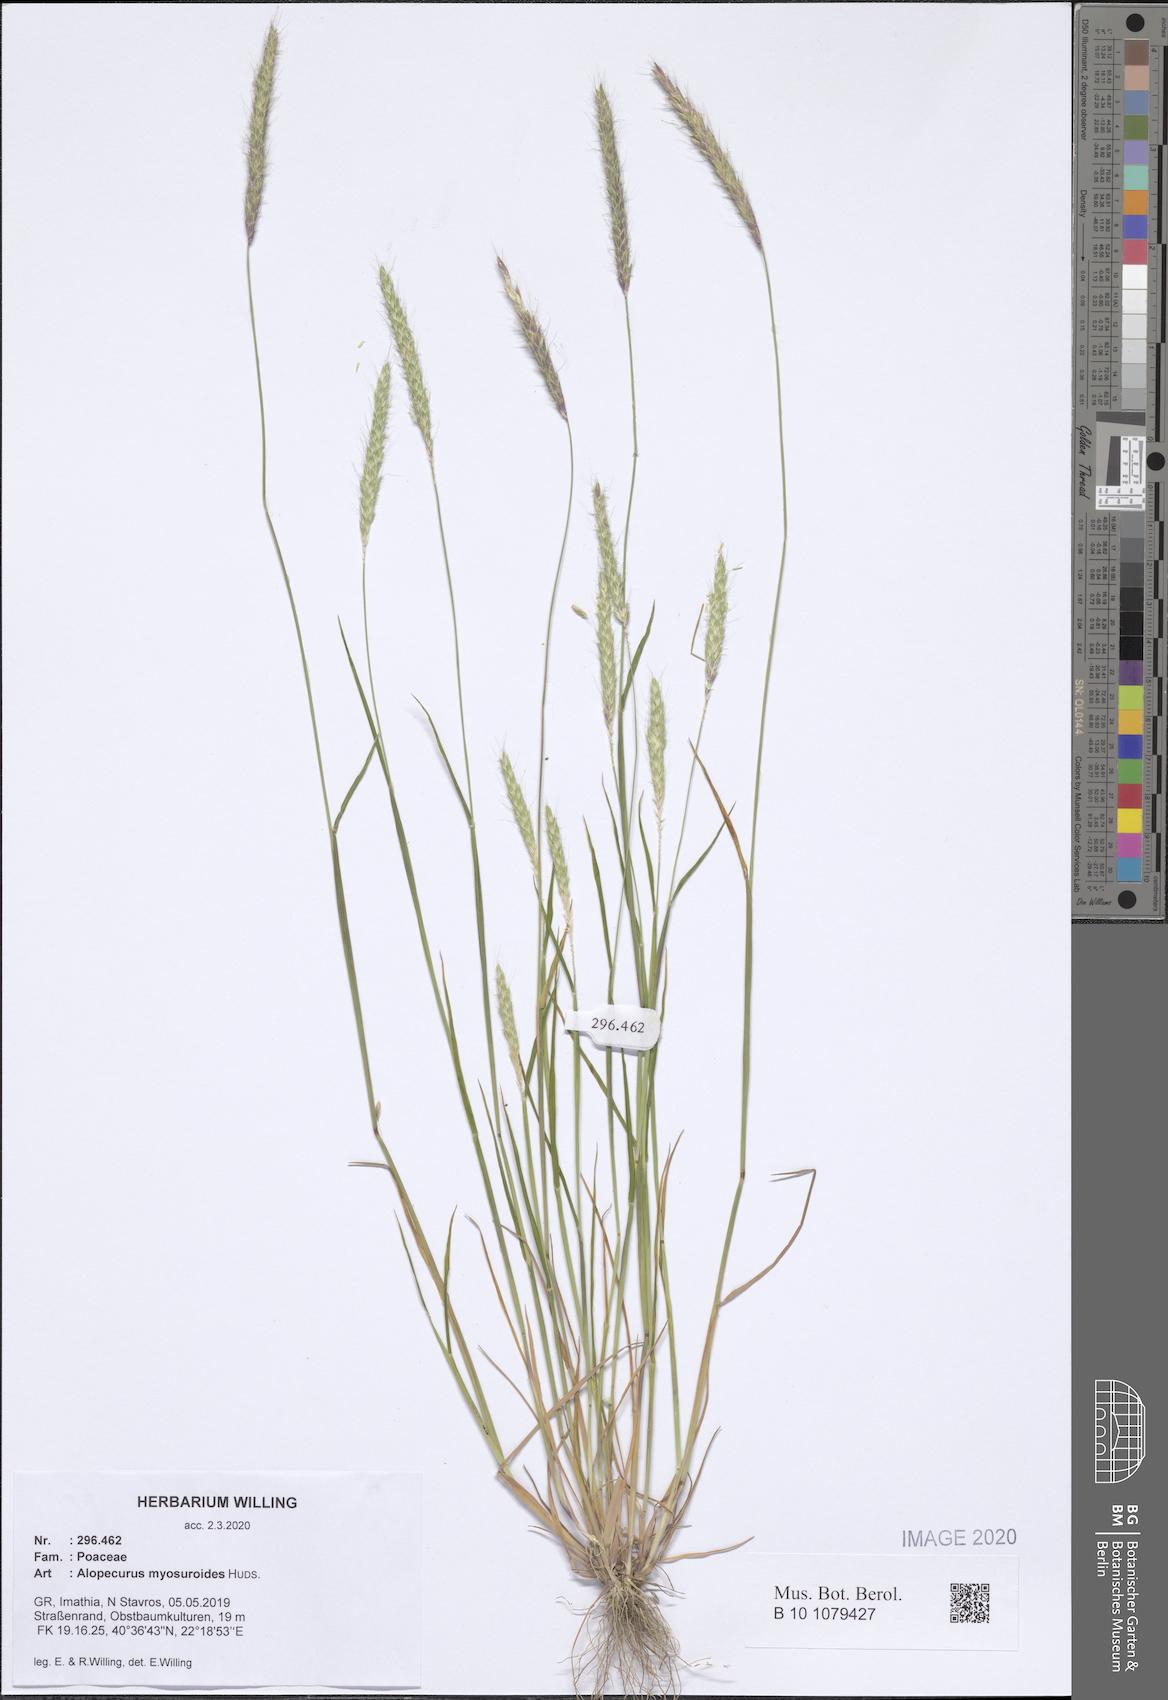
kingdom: Plantae
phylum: Tracheophyta
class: Liliopsida
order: Poales
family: Poaceae
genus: Alopecurus
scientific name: Alopecurus myosuroides
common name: Black-grass
